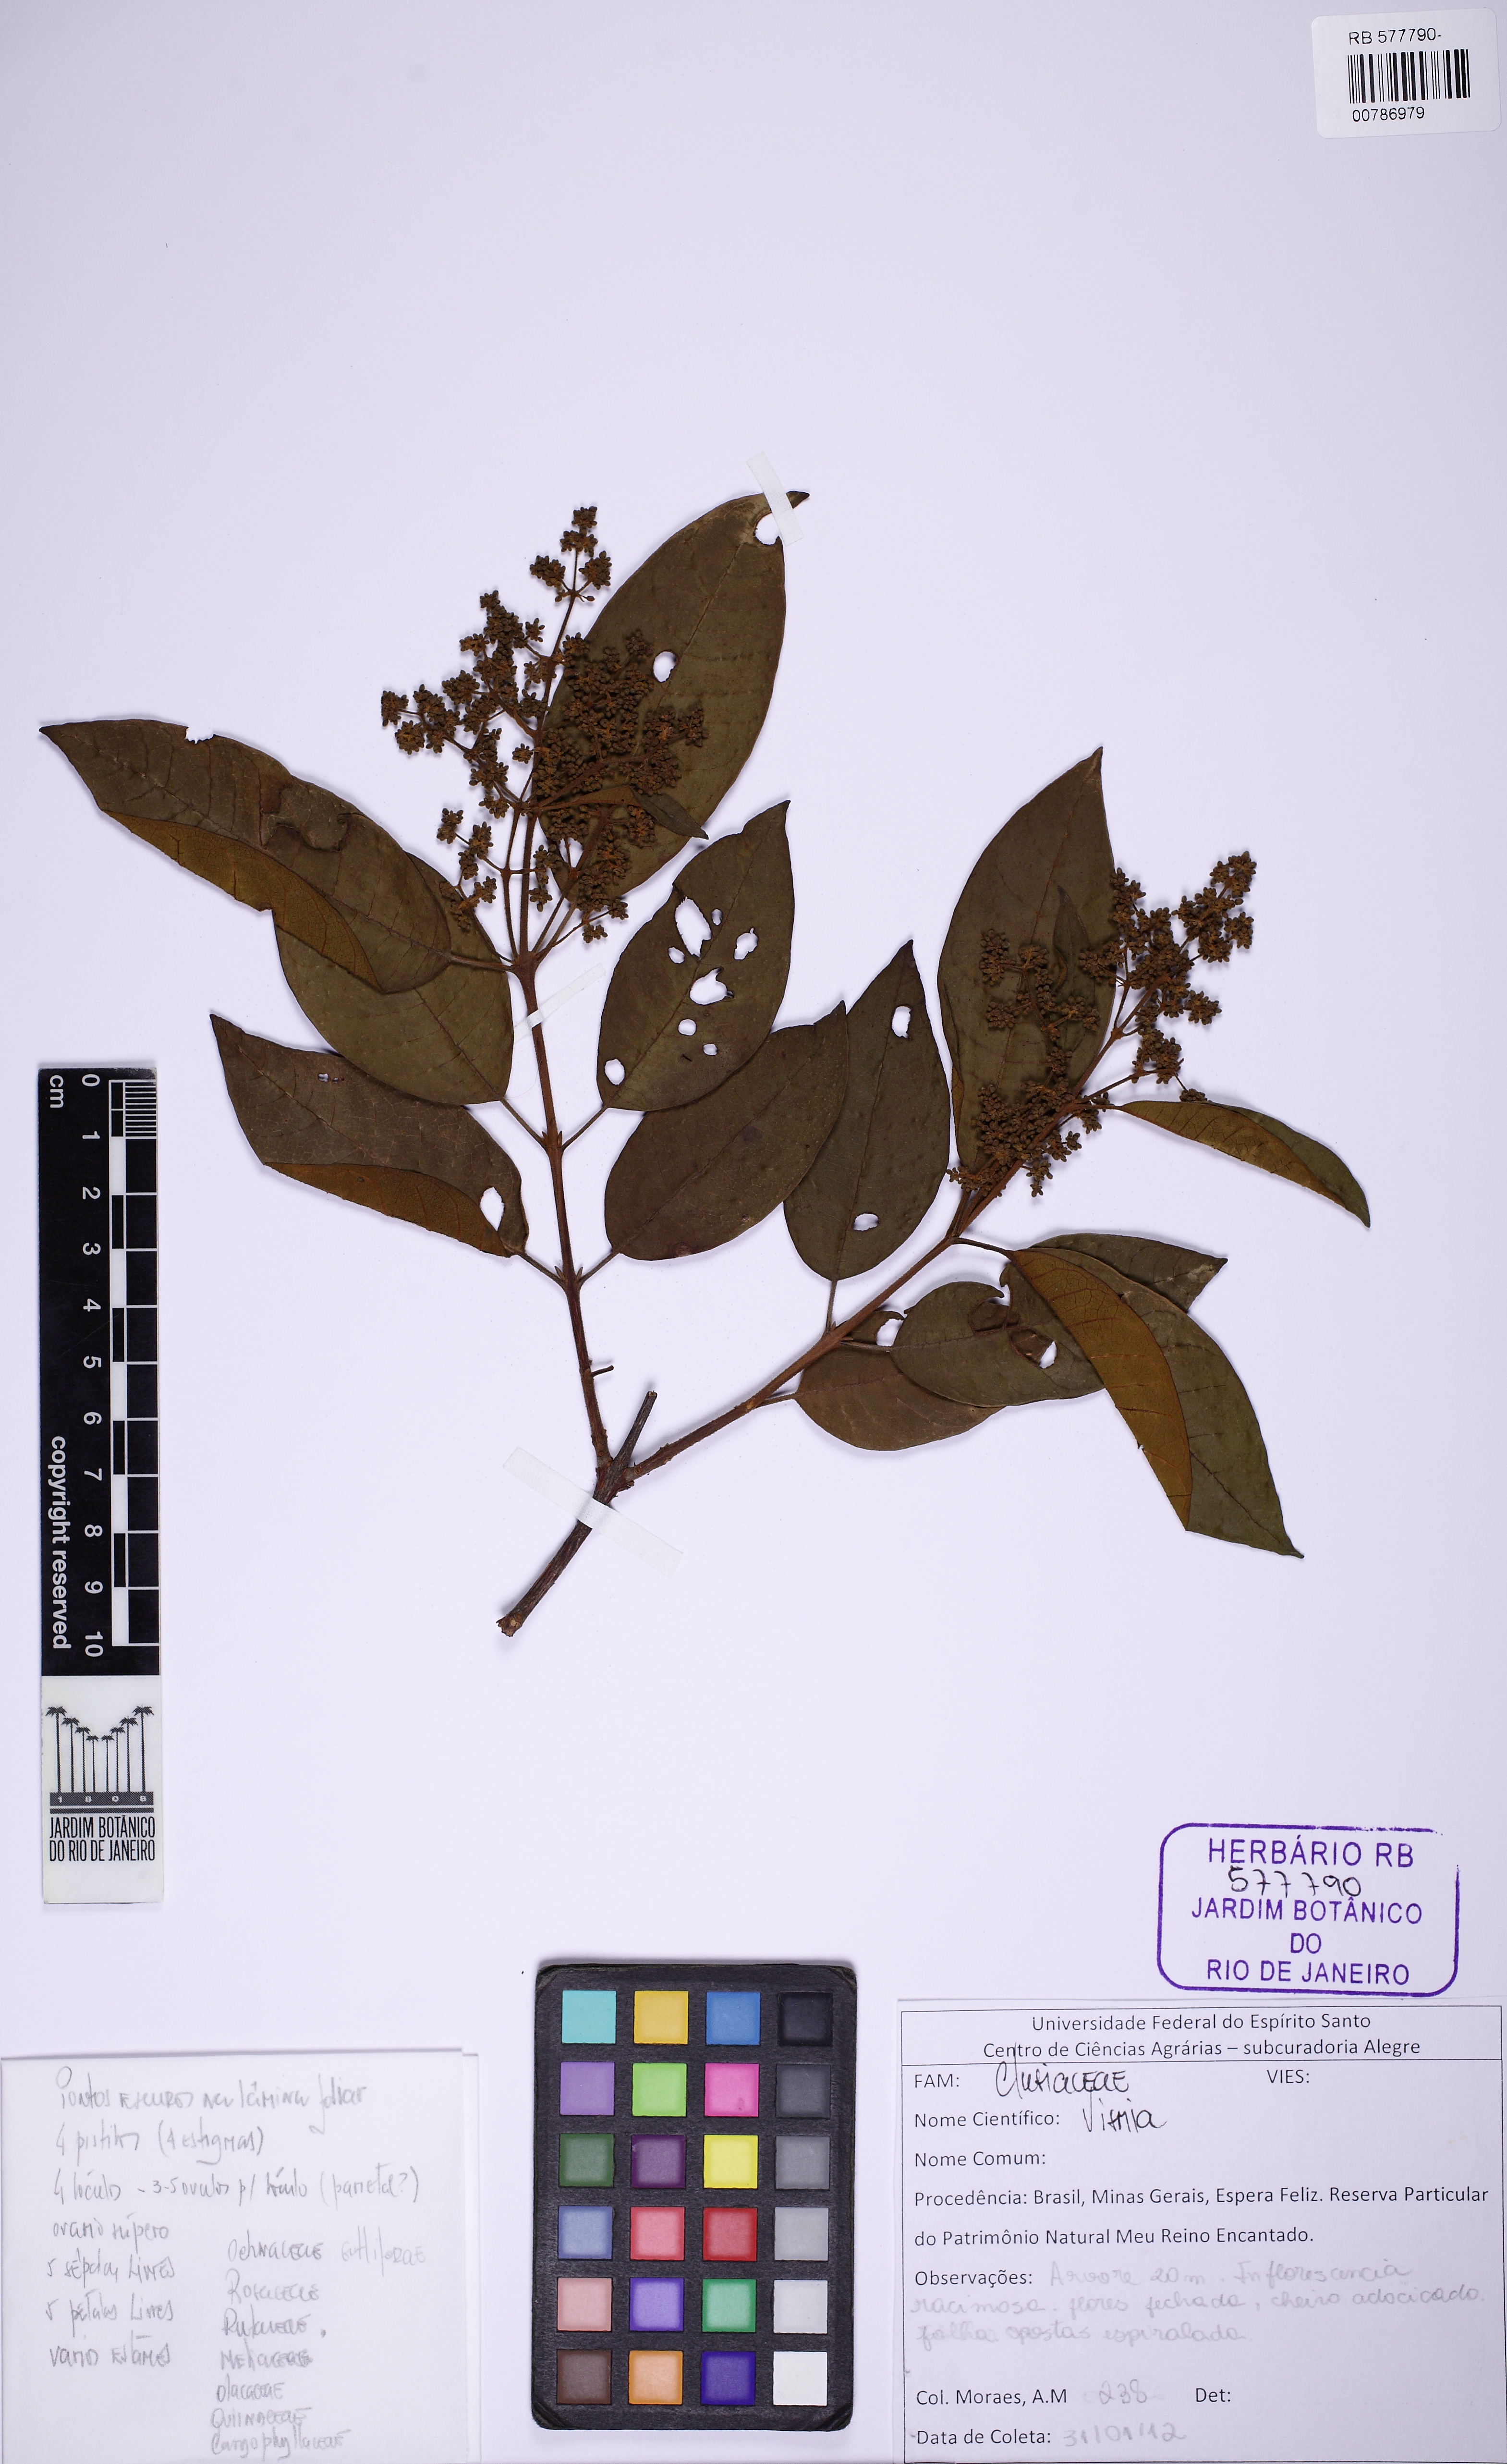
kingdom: Plantae
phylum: Tracheophyta
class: Magnoliopsida
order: Malpighiales
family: Hypericaceae
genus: Vismia
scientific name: Vismia micrantha
